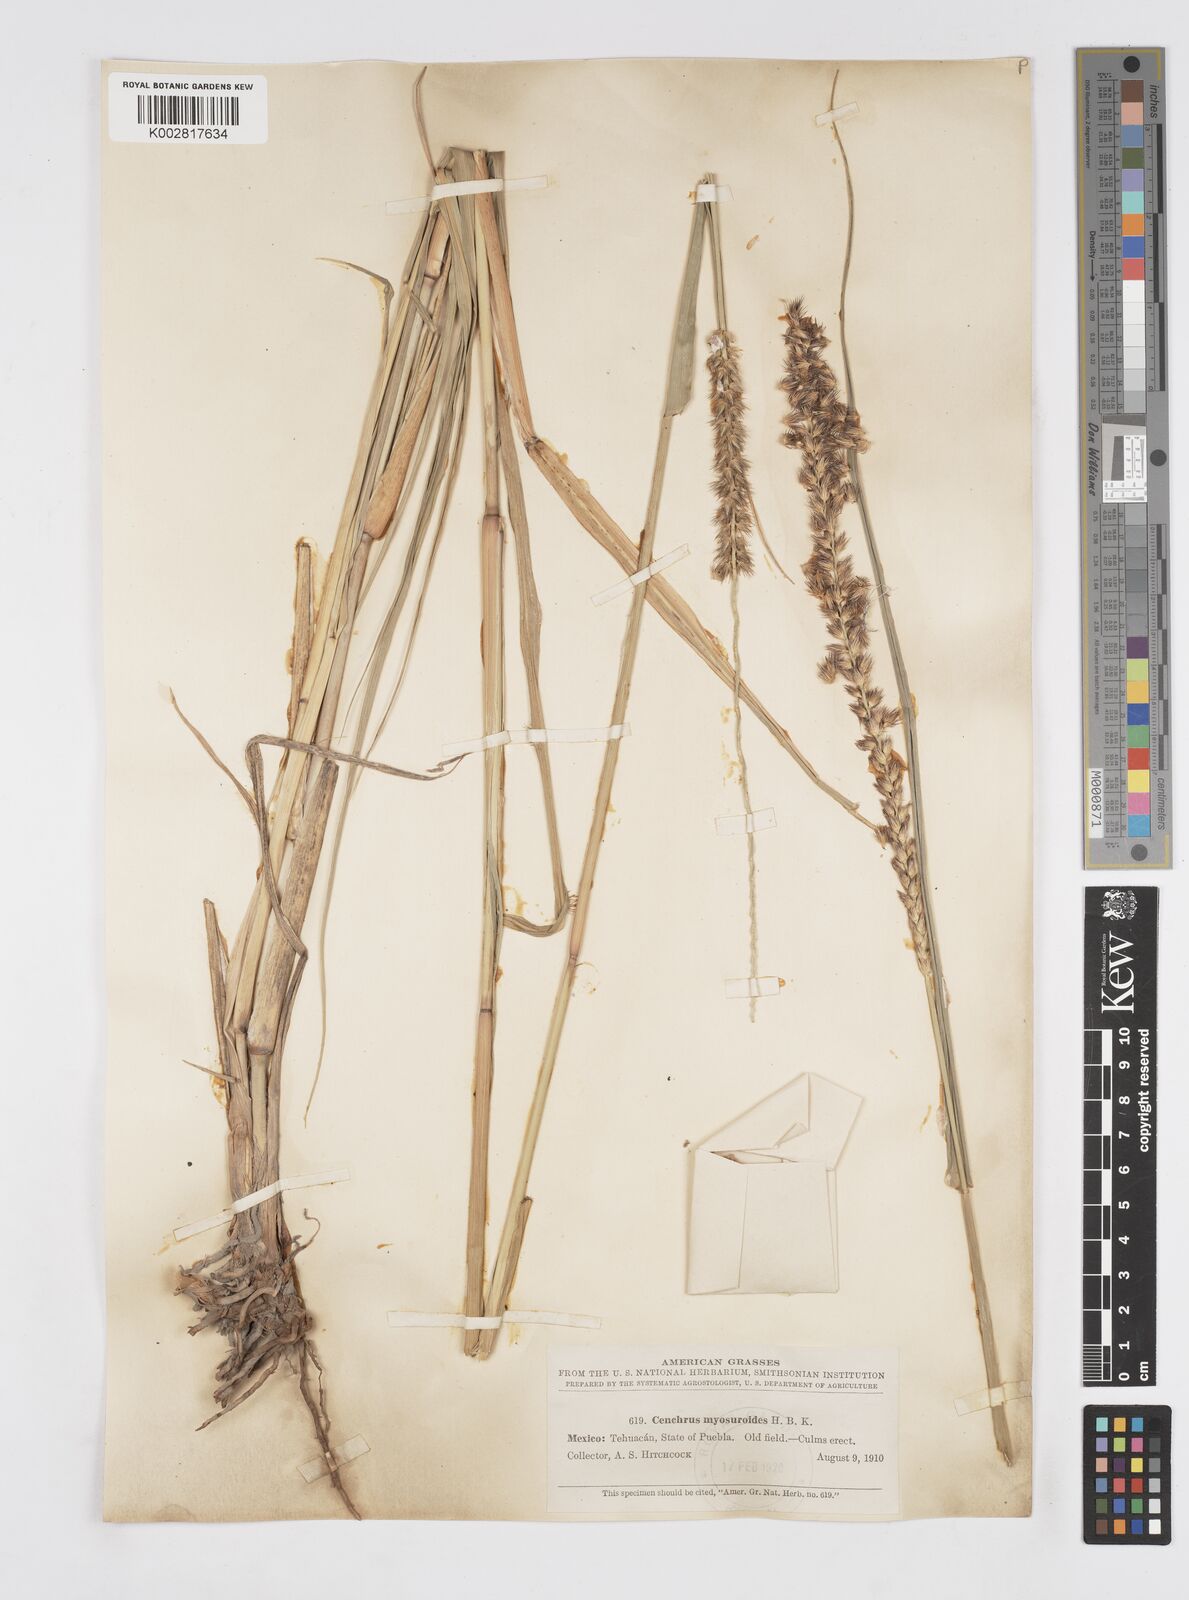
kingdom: Plantae
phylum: Tracheophyta
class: Liliopsida
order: Poales
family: Poaceae
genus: Cenchrus
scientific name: Cenchrus myosuroides
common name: Big sandbur
